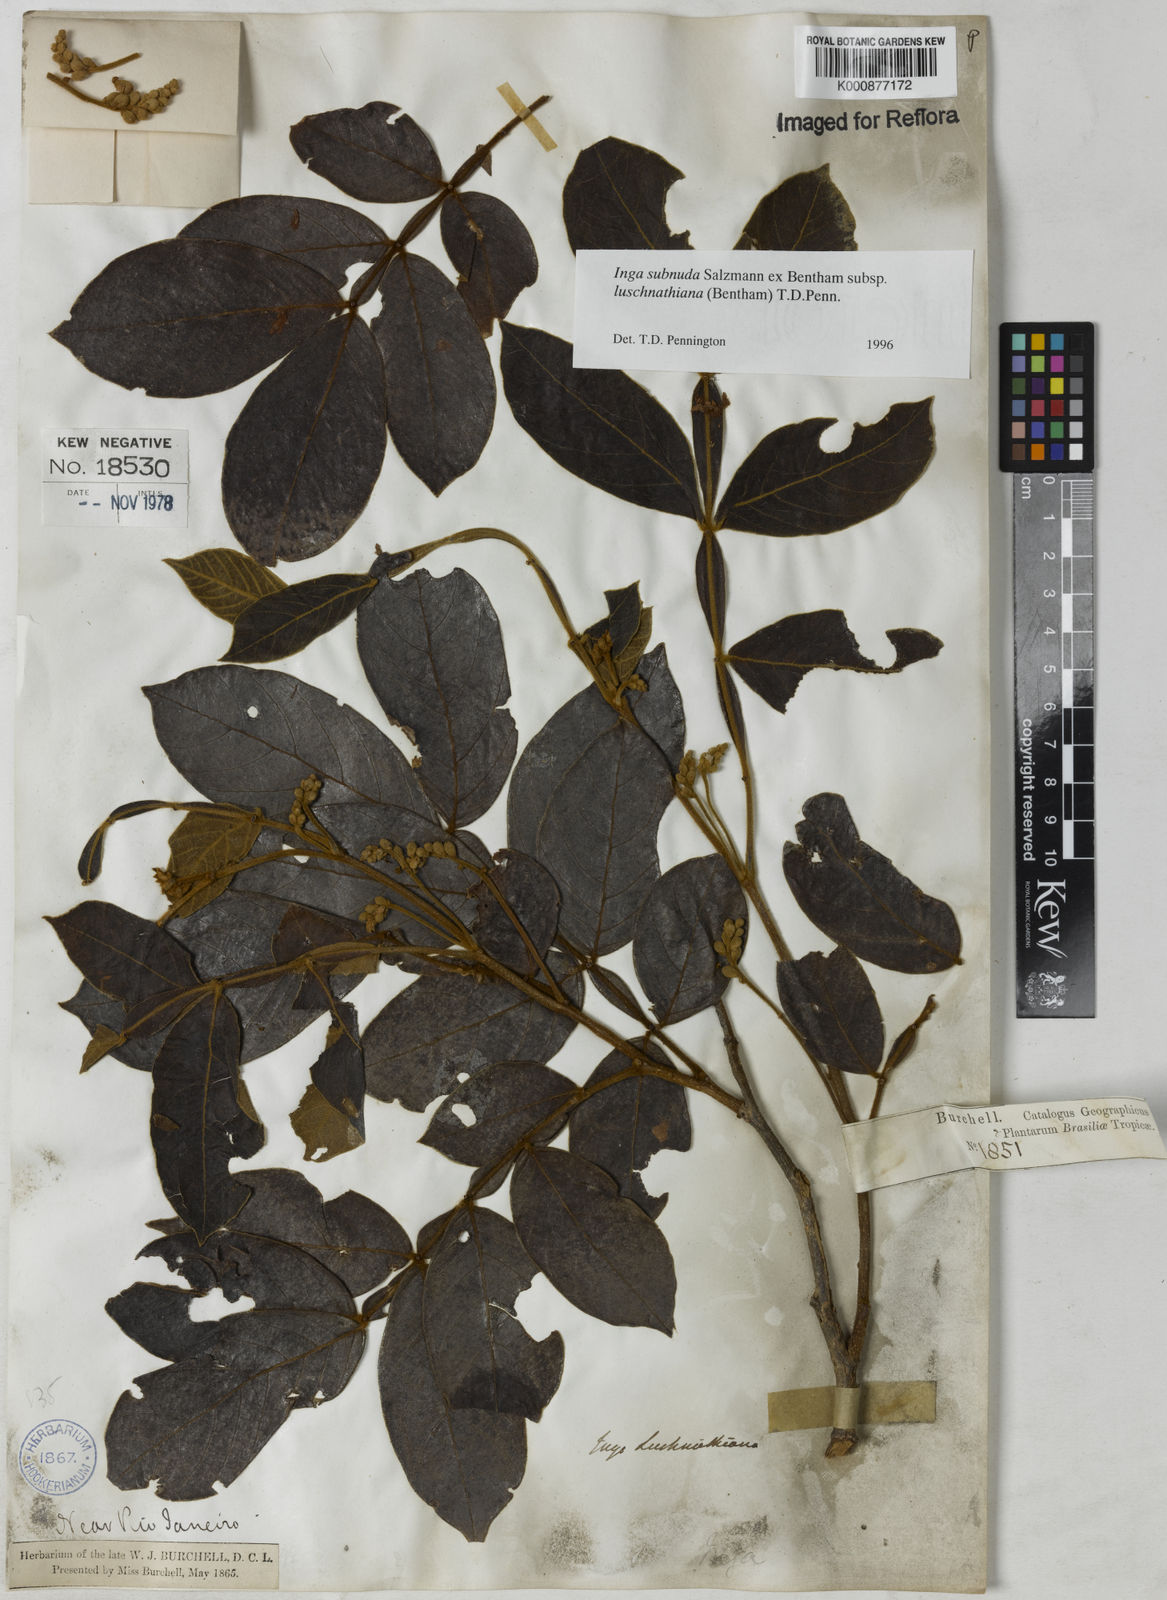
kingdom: Plantae
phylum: Tracheophyta
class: Magnoliopsida
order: Fabales
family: Fabaceae
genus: Inga
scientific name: Inga subnuda
